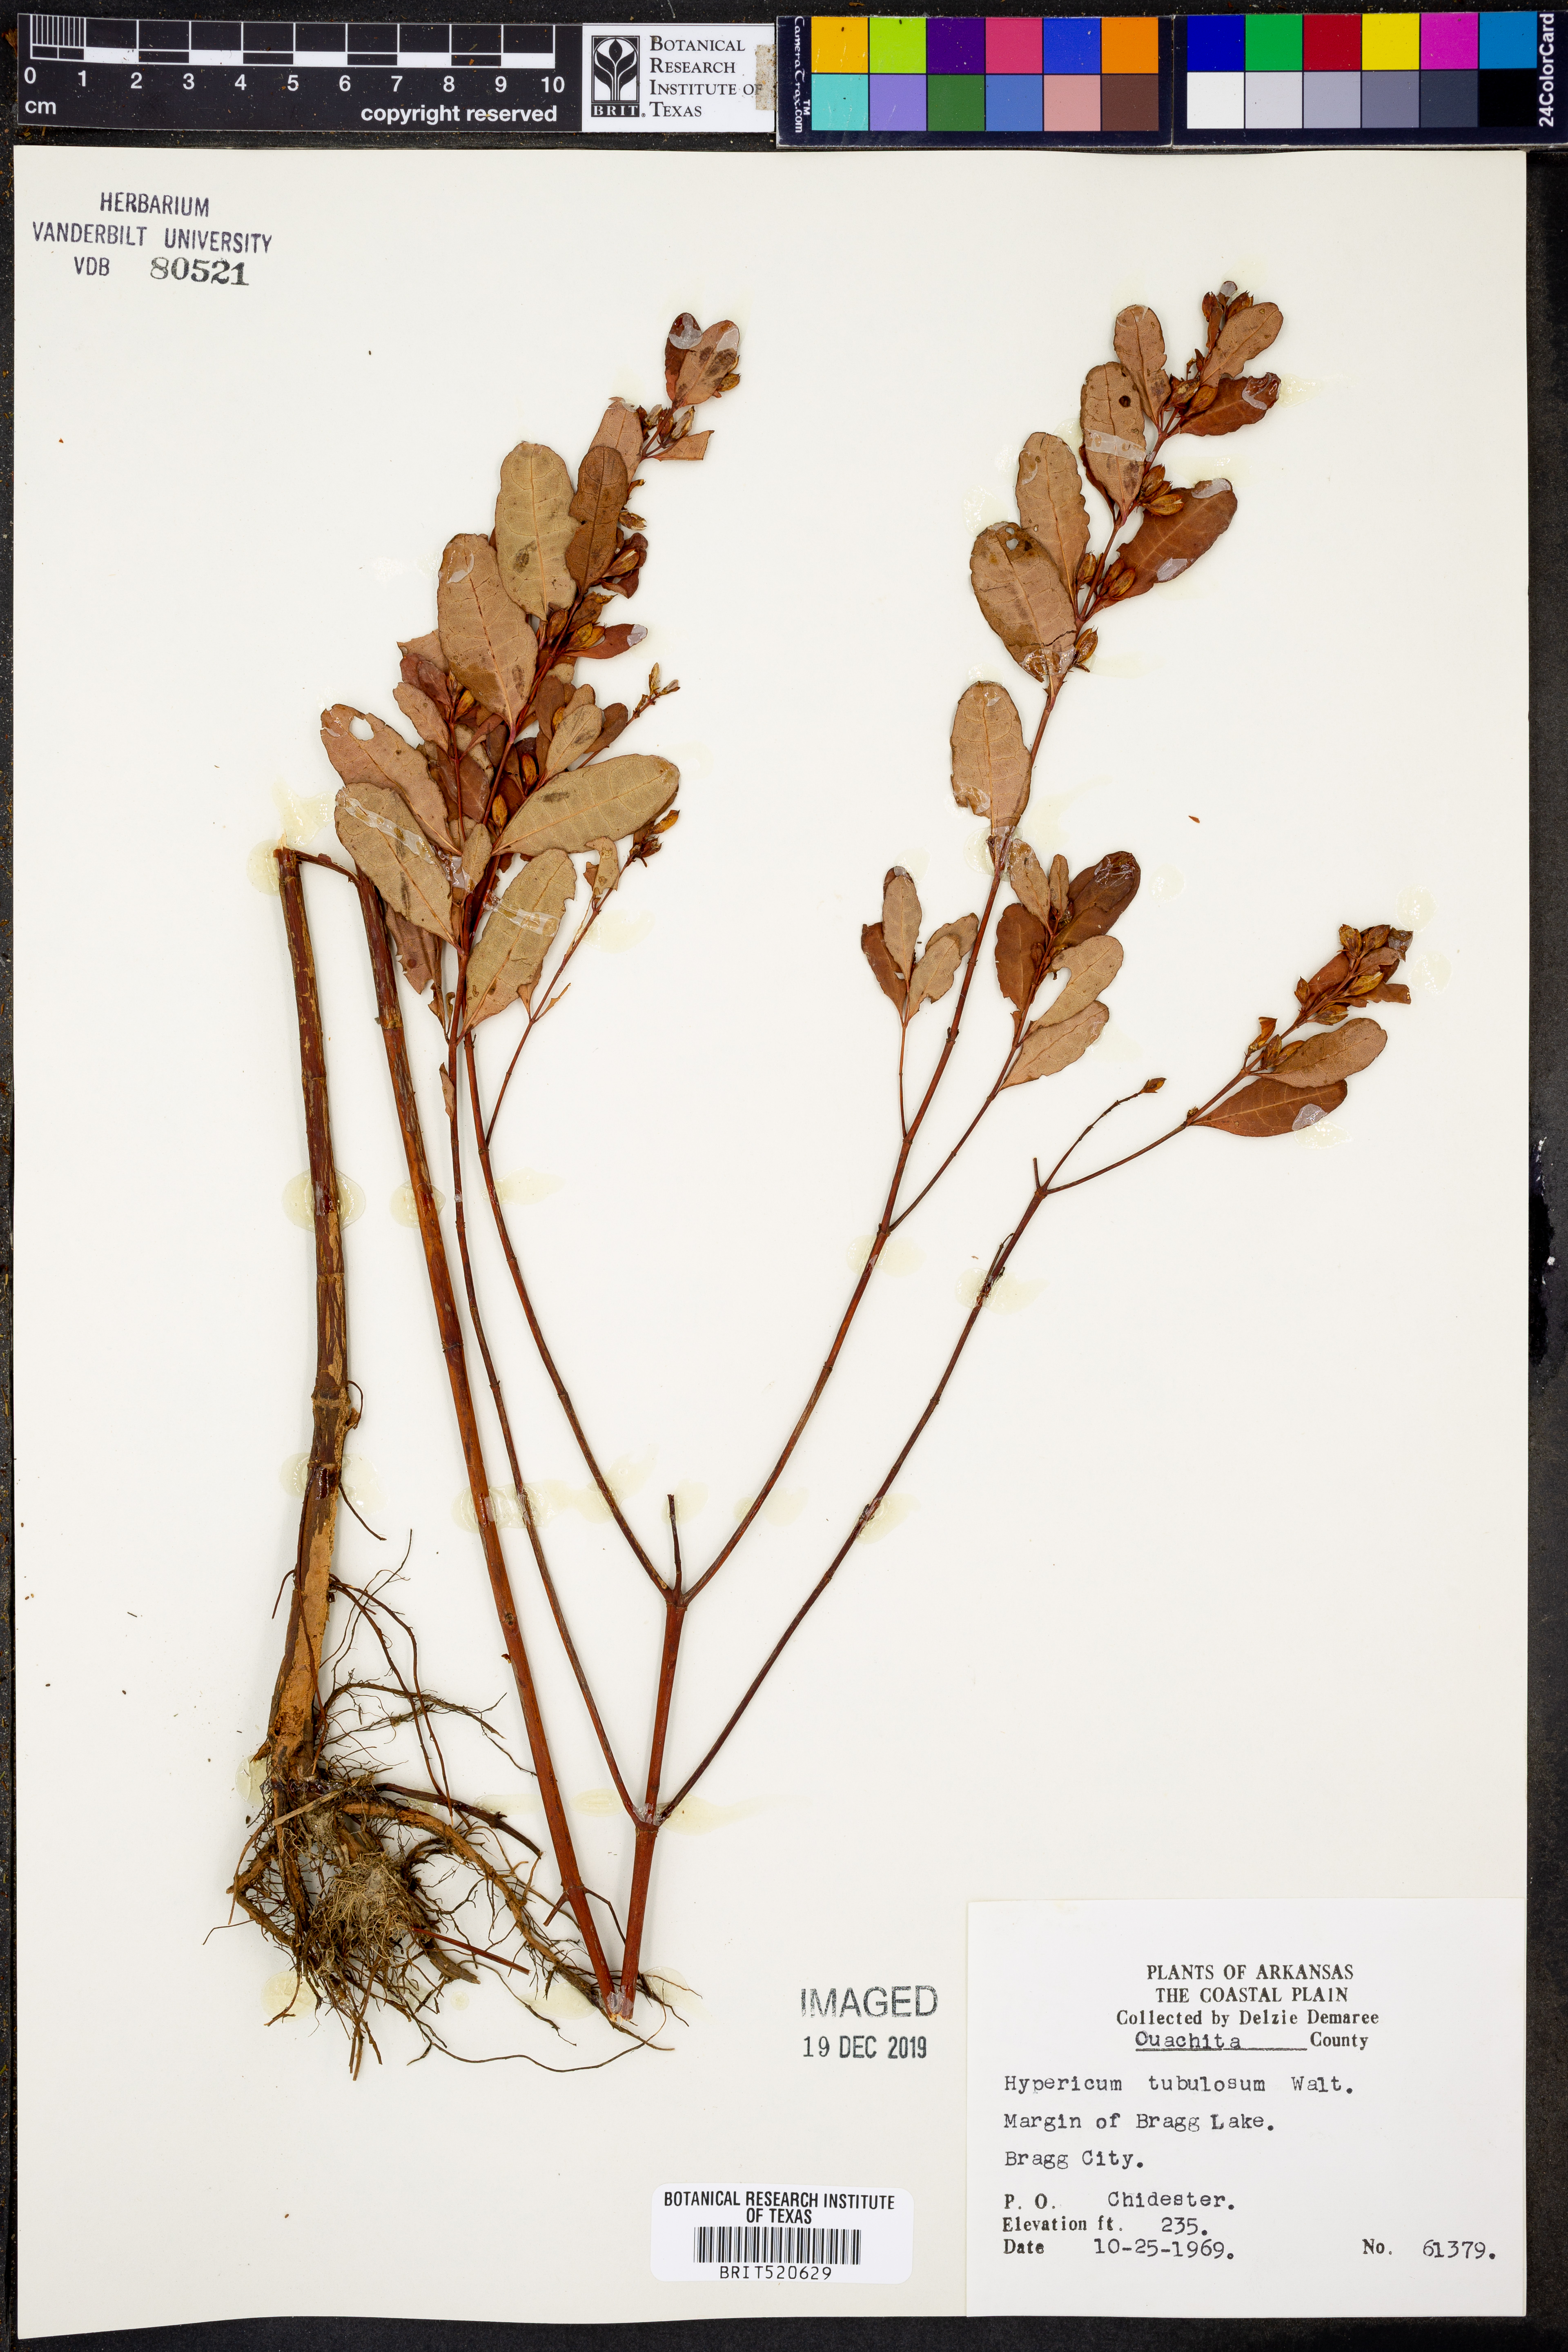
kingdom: Plantae
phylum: Tracheophyta
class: Magnoliopsida
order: Malpighiales
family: Hypericaceae
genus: Triadenum
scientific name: Triadenum tubulosum
